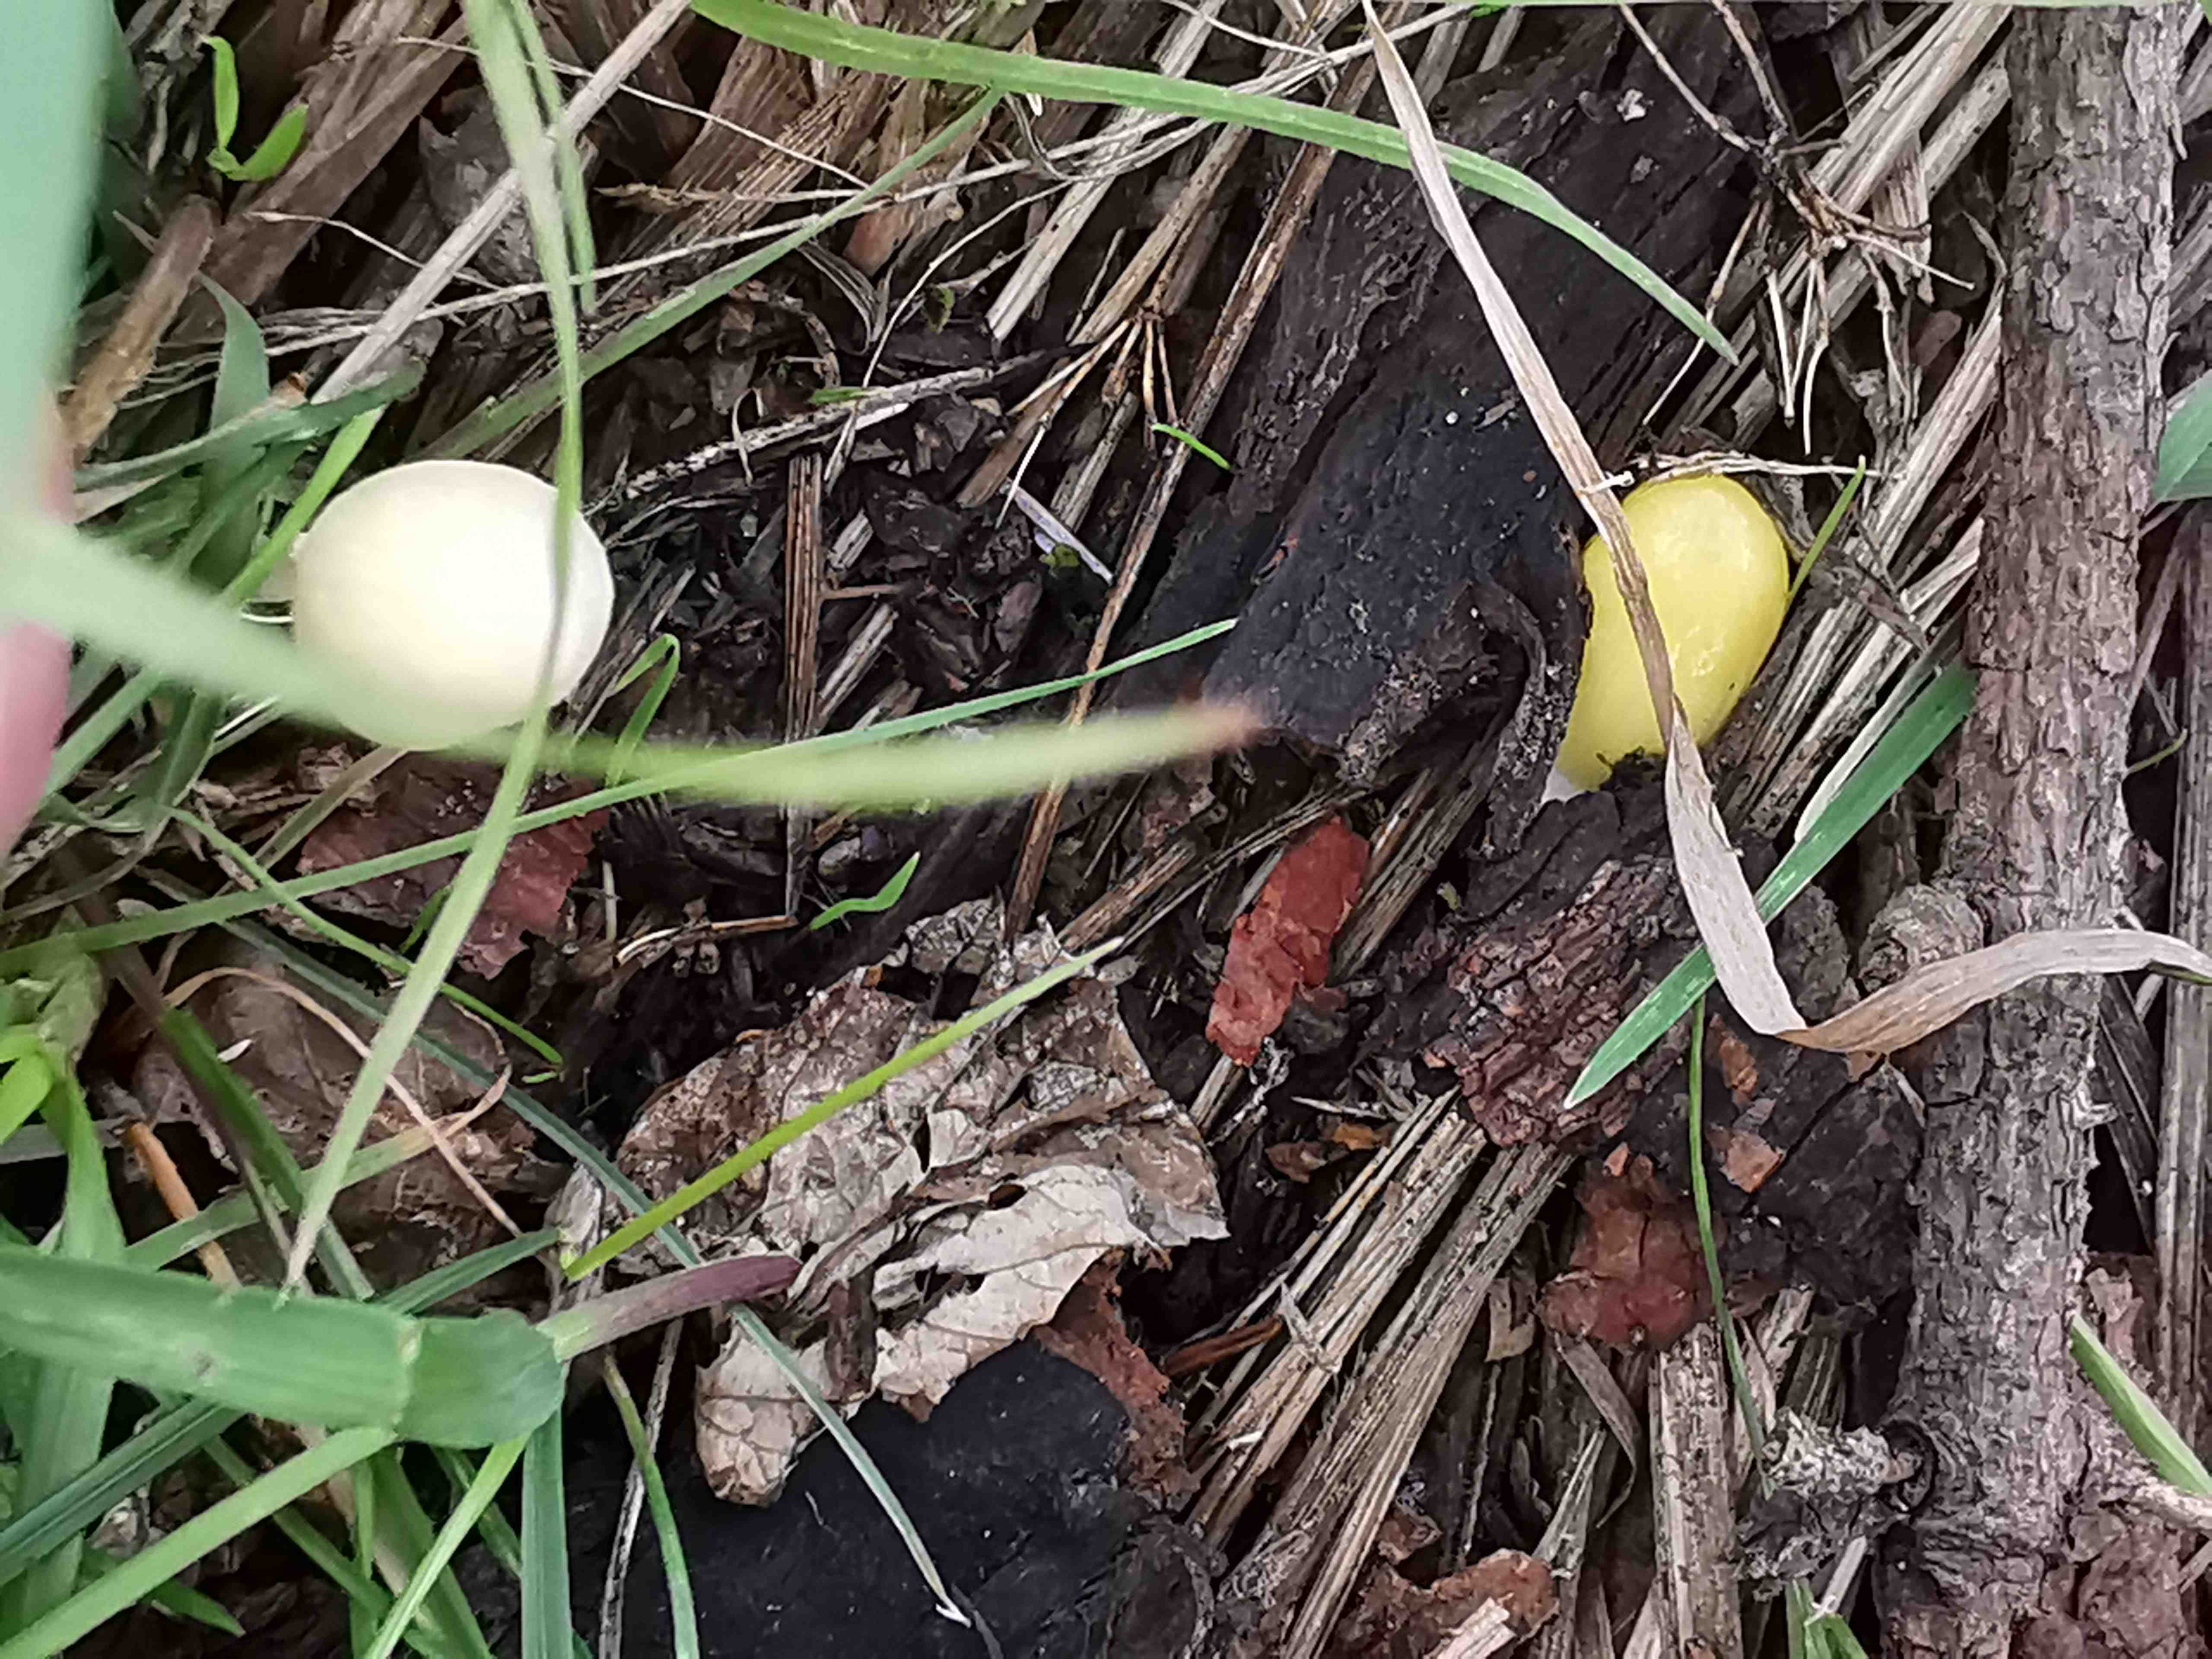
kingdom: Fungi
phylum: Basidiomycota
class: Agaricomycetes
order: Agaricales
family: Bolbitiaceae
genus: Bolbitius
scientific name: Bolbitius titubans
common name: almindelig gulhat
